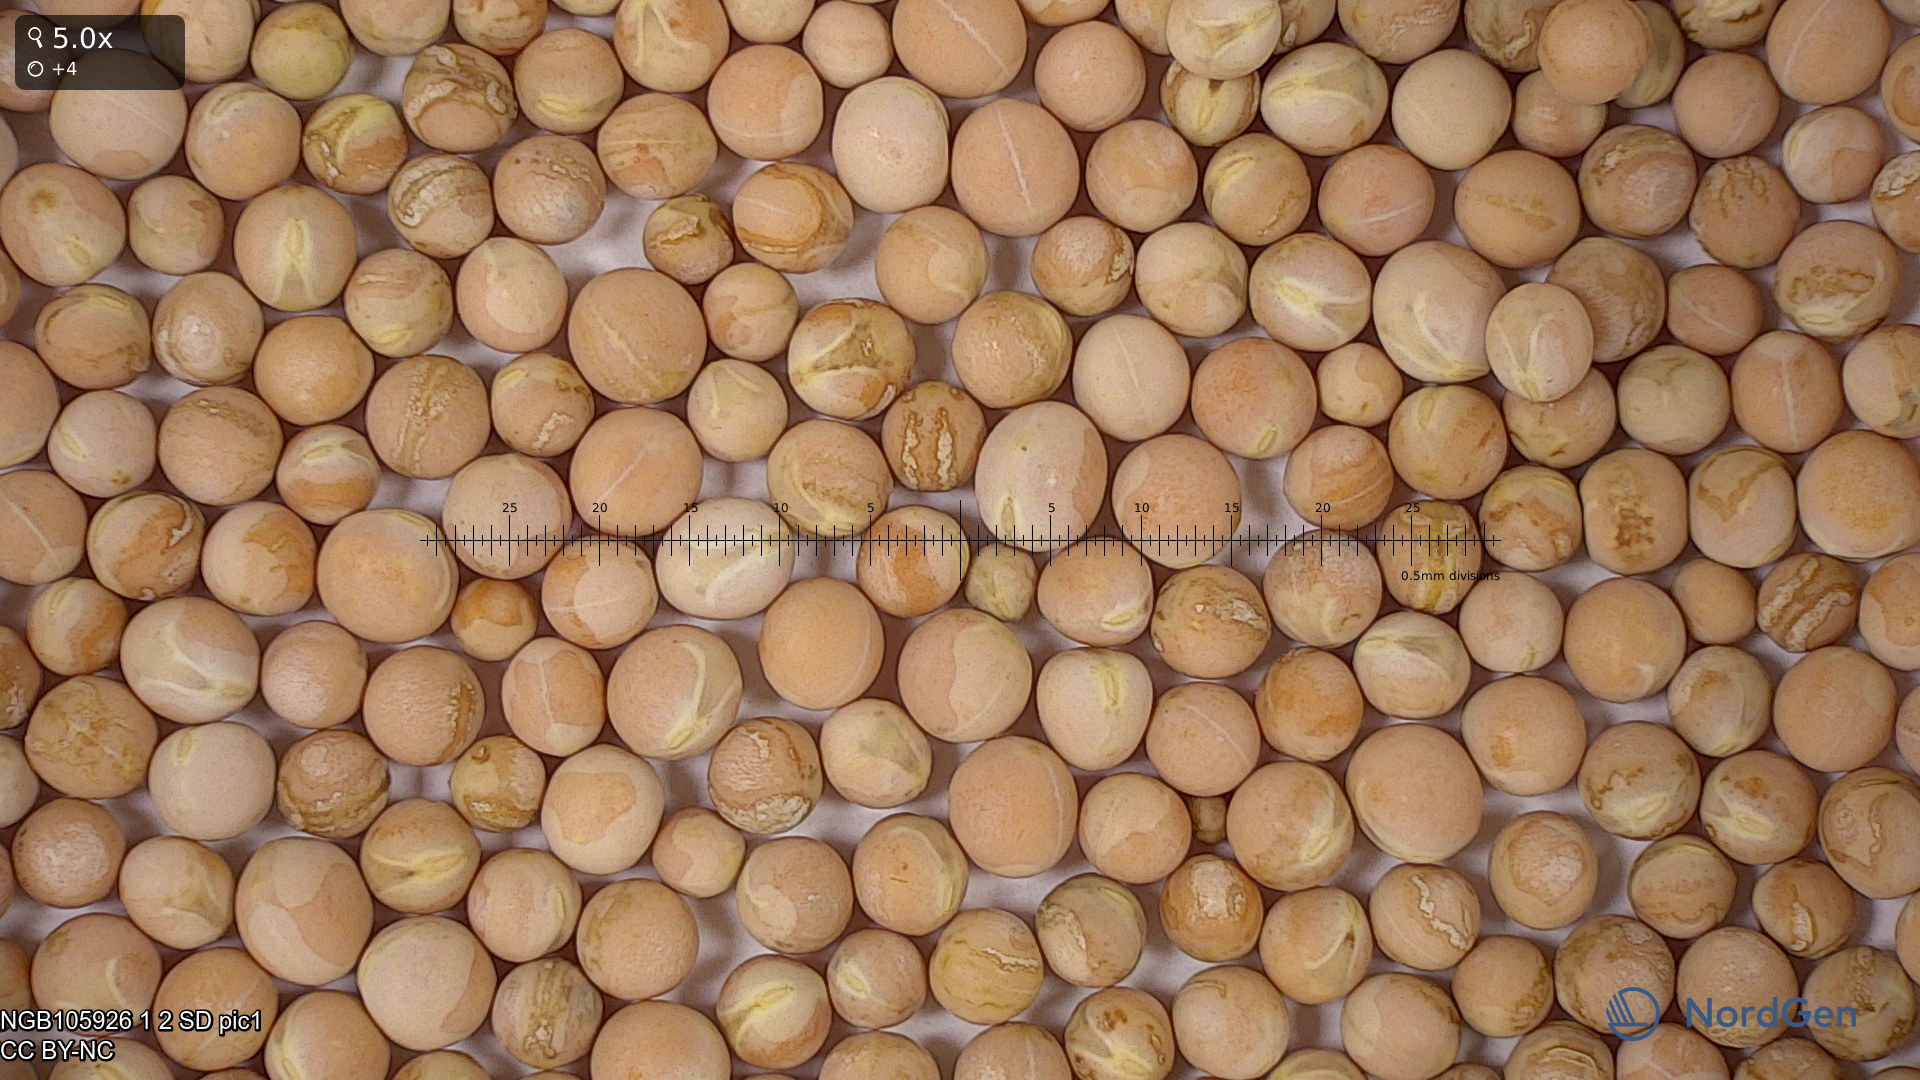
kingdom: Plantae
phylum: Tracheophyta
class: Magnoliopsida
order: Fabales
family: Fabaceae
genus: Lathyrus
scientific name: Lathyrus oleraceus
